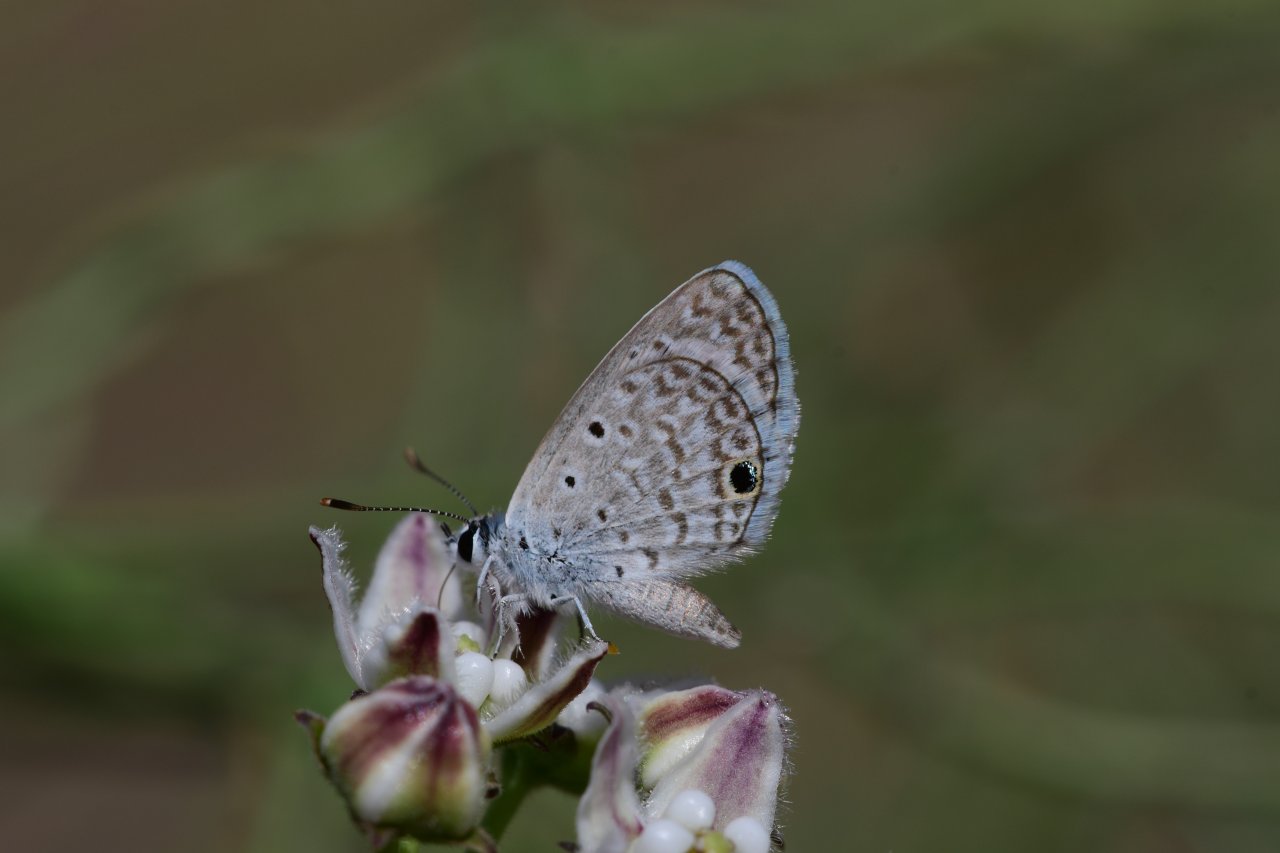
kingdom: Animalia
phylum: Arthropoda
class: Insecta
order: Lepidoptera
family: Lycaenidae
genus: Hemiargus
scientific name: Hemiargus ceraunus
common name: Ceraunus Blue
